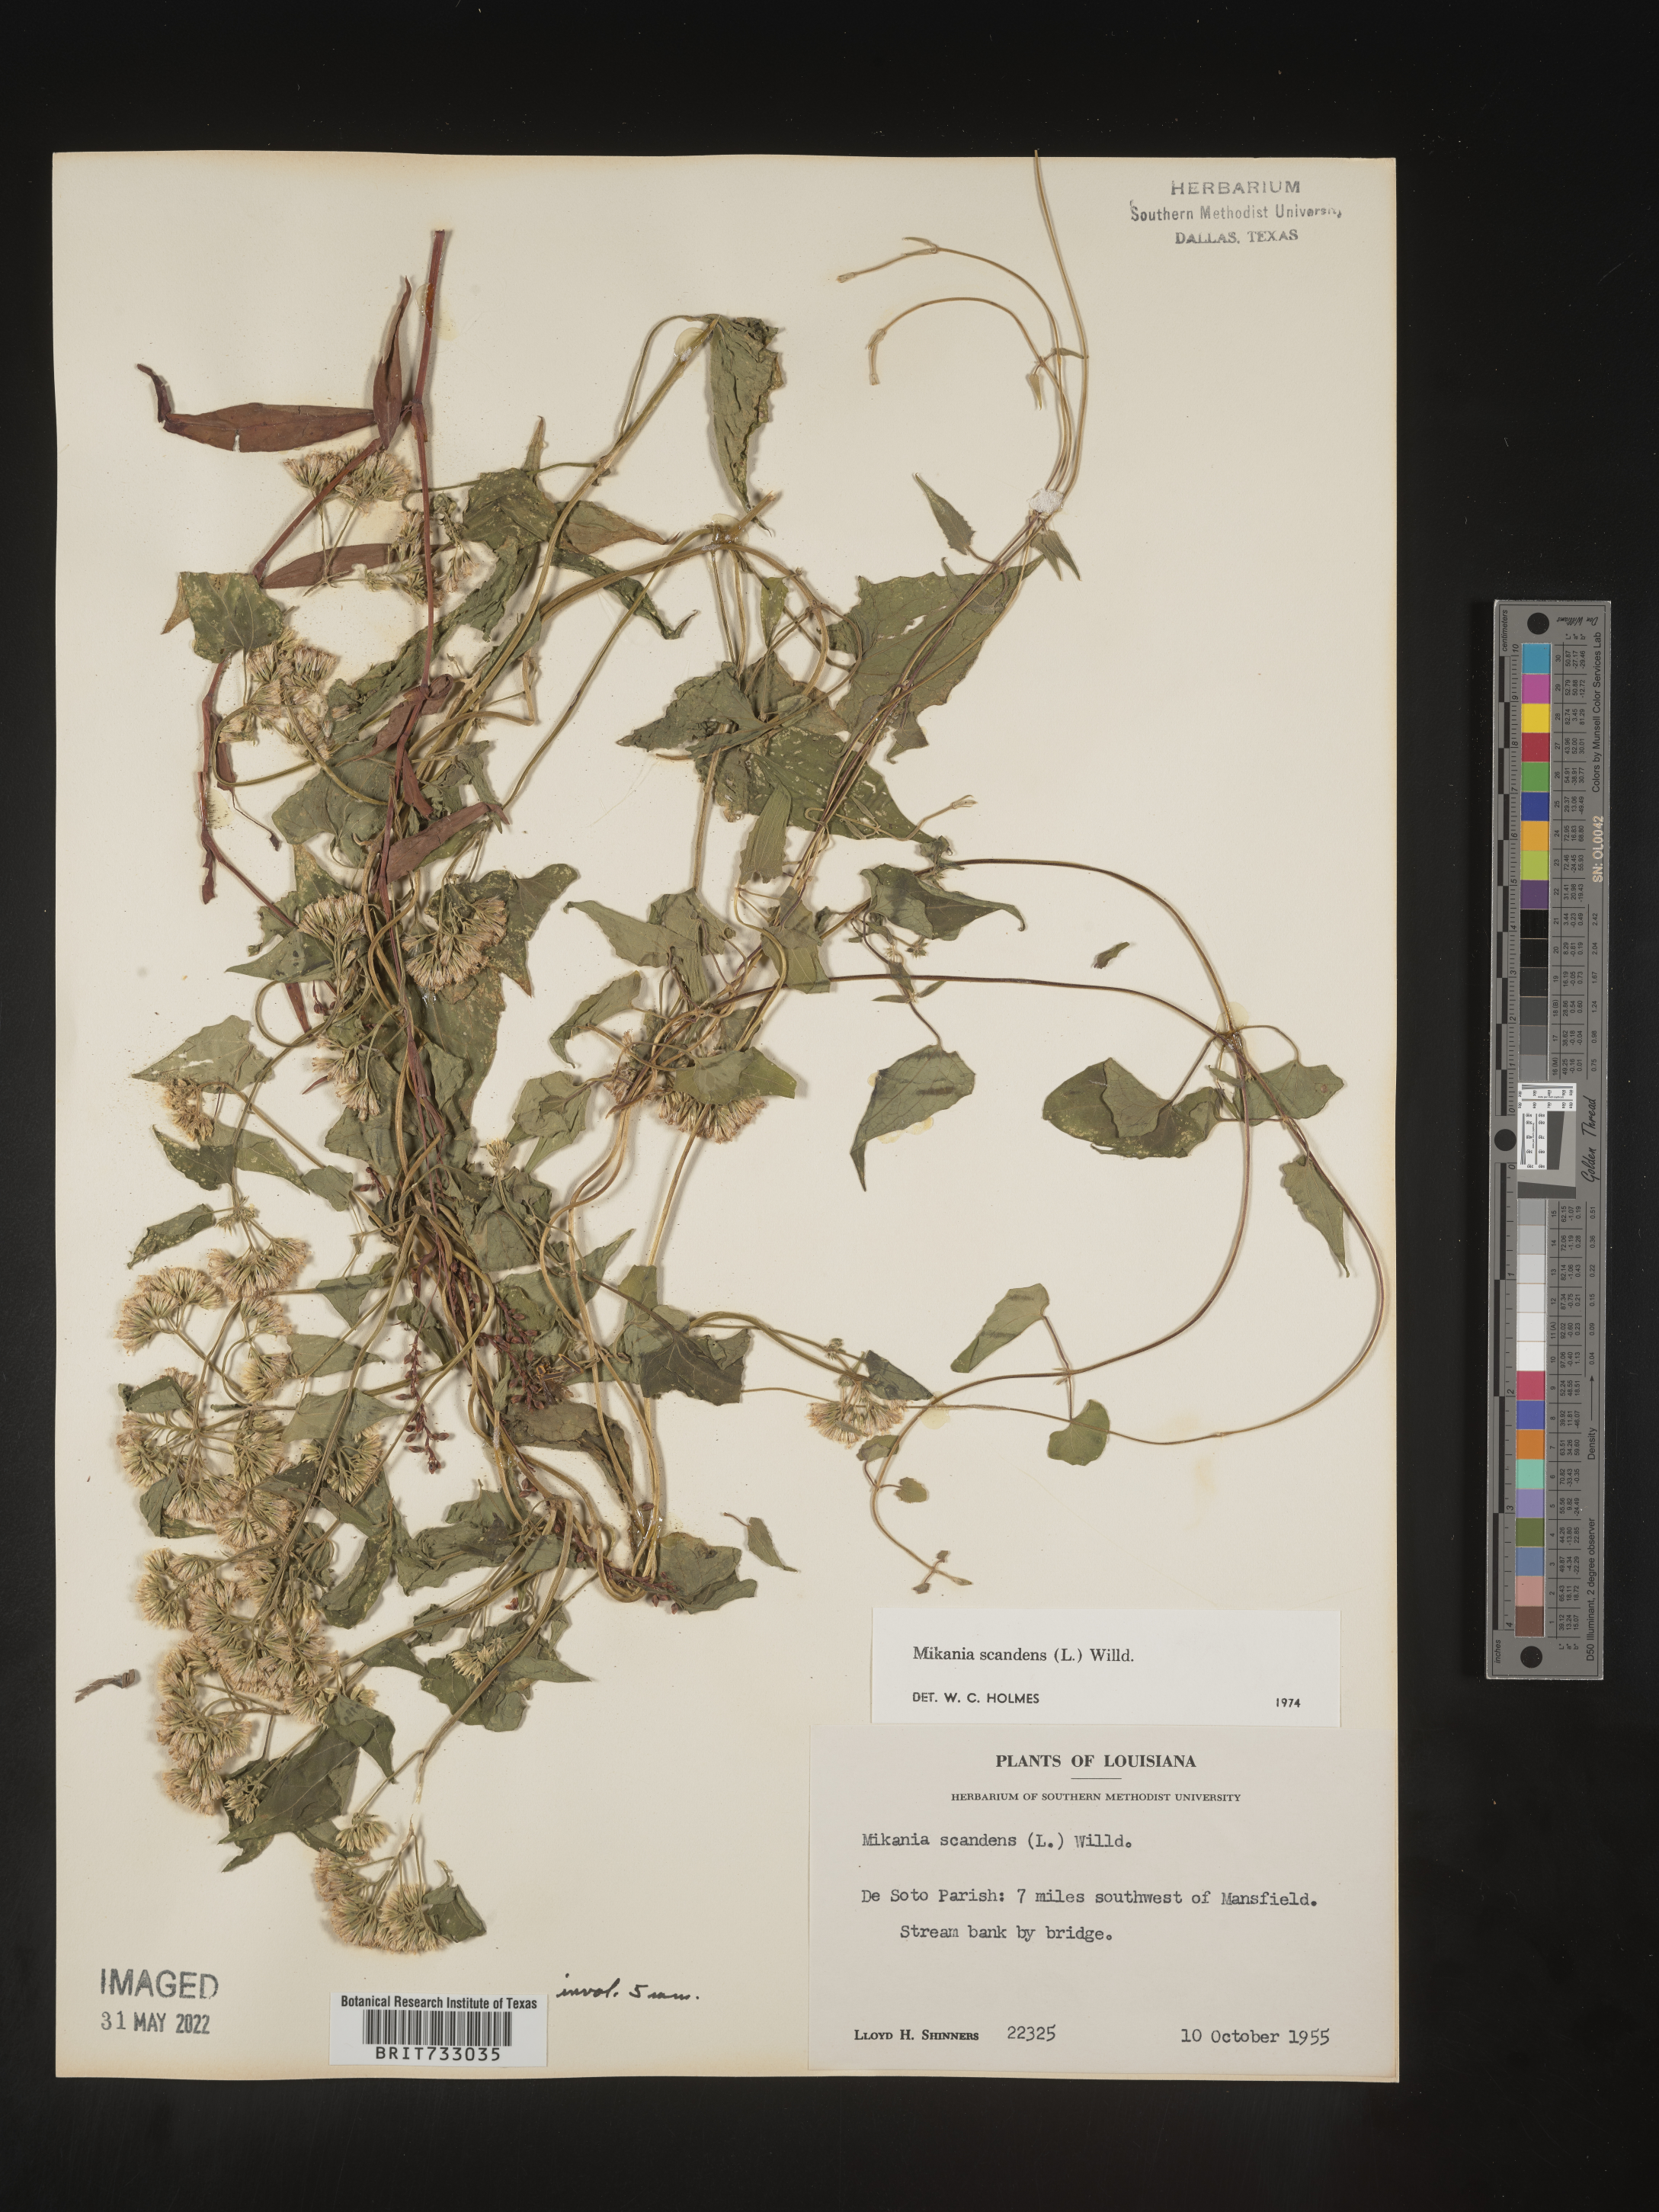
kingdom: Plantae
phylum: Tracheophyta
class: Magnoliopsida
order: Asterales
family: Asteraceae
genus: Mikania
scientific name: Mikania scandens
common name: Climbing hempvine
